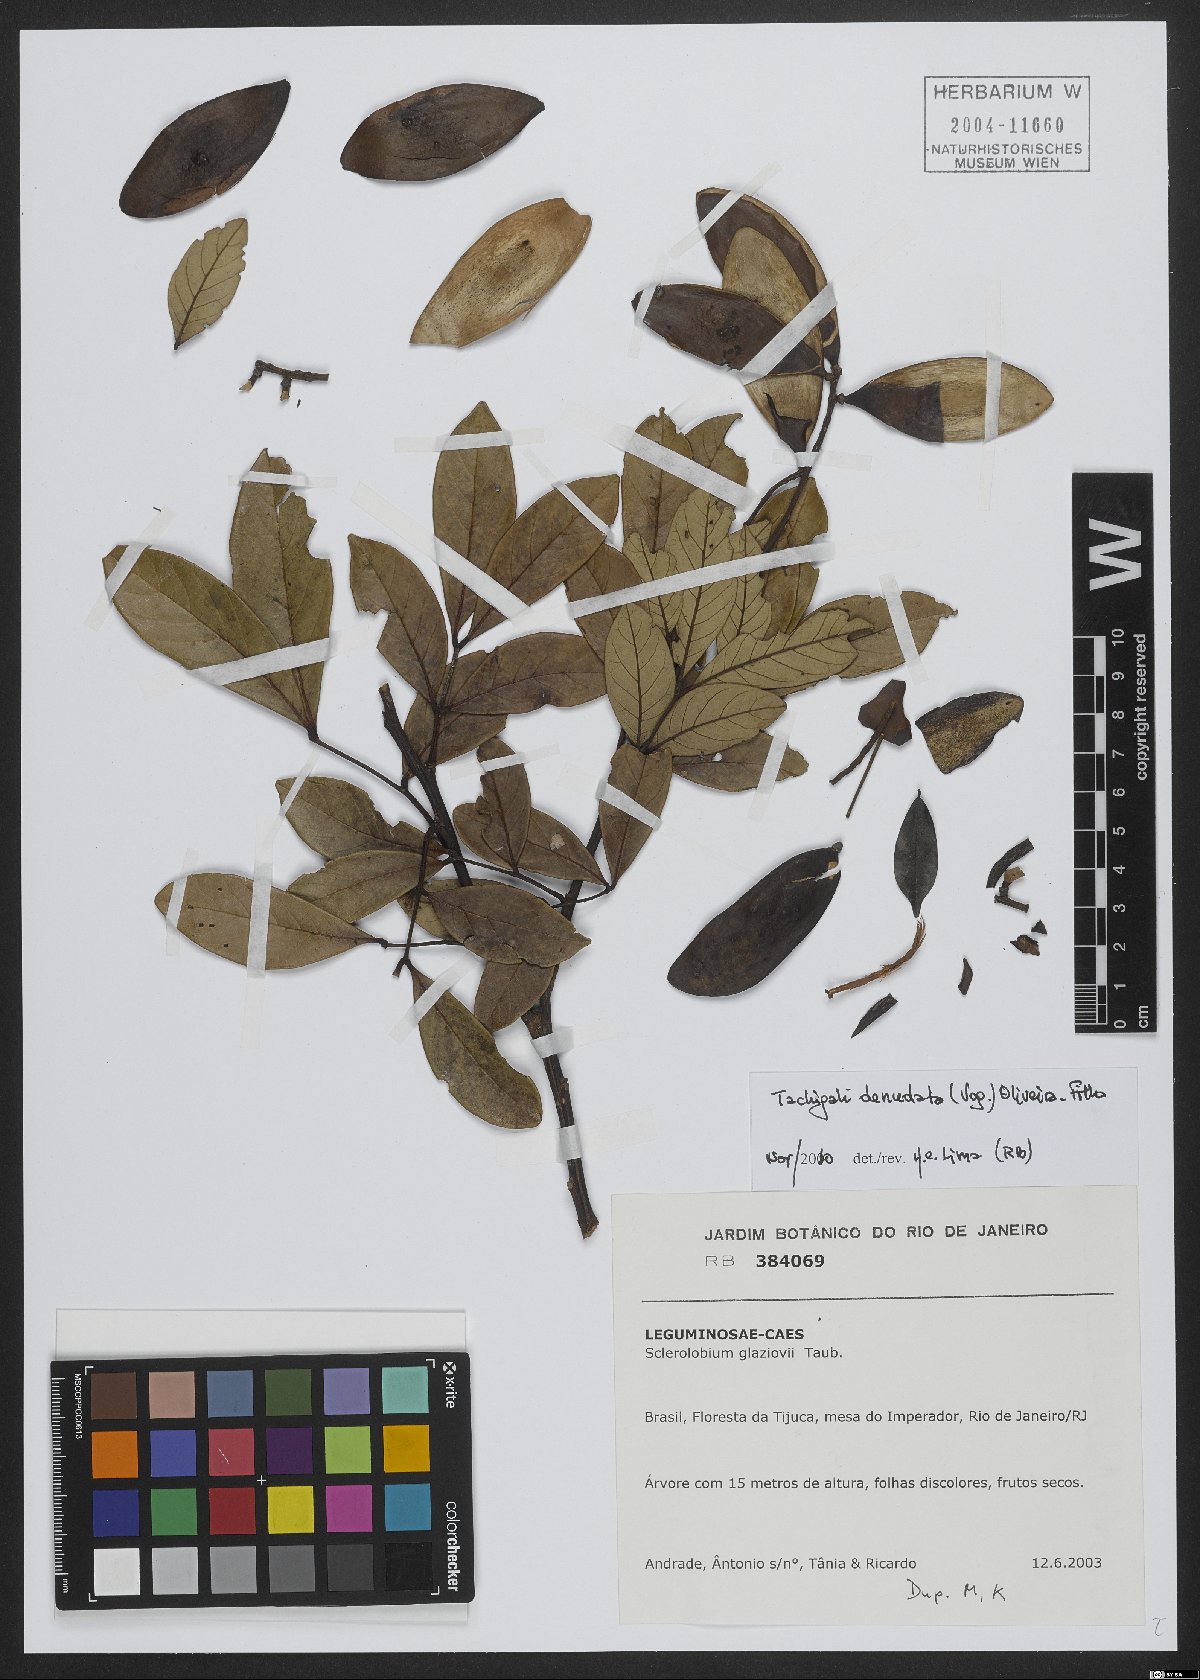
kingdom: Plantae
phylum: Tracheophyta
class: Magnoliopsida
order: Fabales
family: Fabaceae
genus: Tachigali
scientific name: Tachigali denudata
